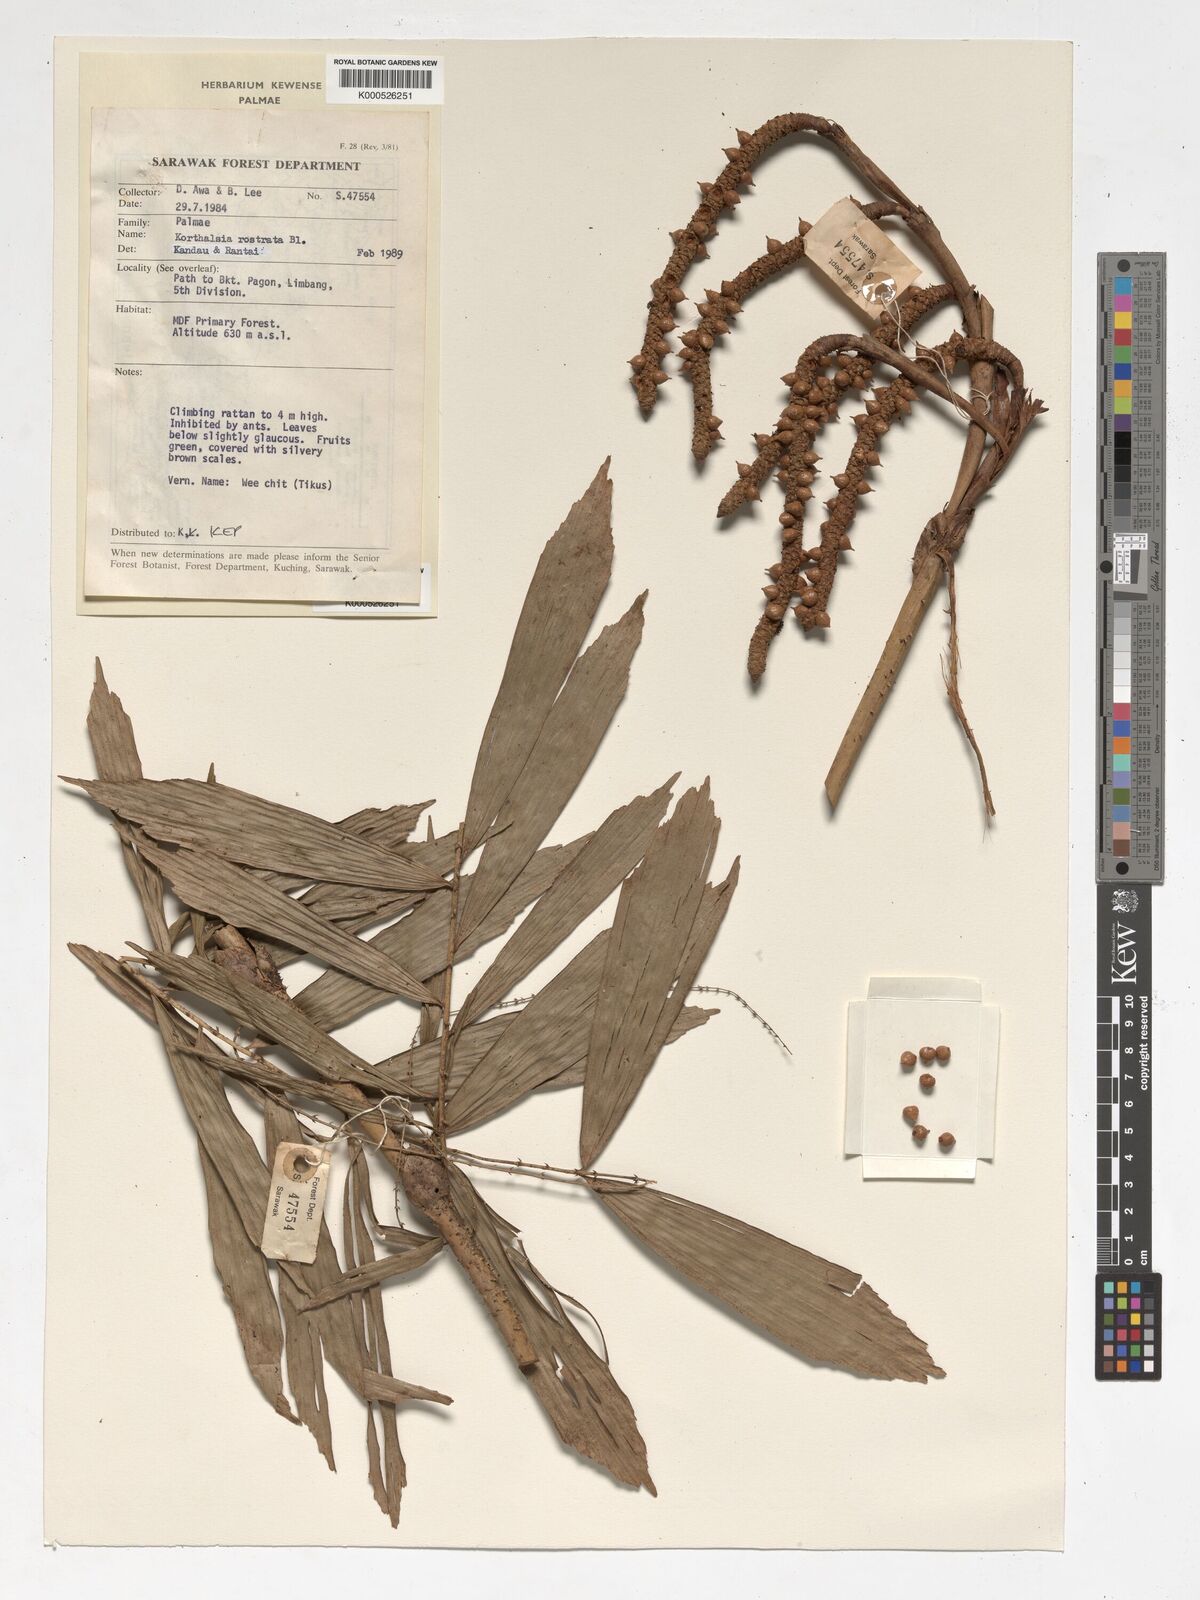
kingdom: Plantae
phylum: Tracheophyta
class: Liliopsida
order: Arecales
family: Arecaceae
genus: Korthalsia
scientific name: Korthalsia rostrata
